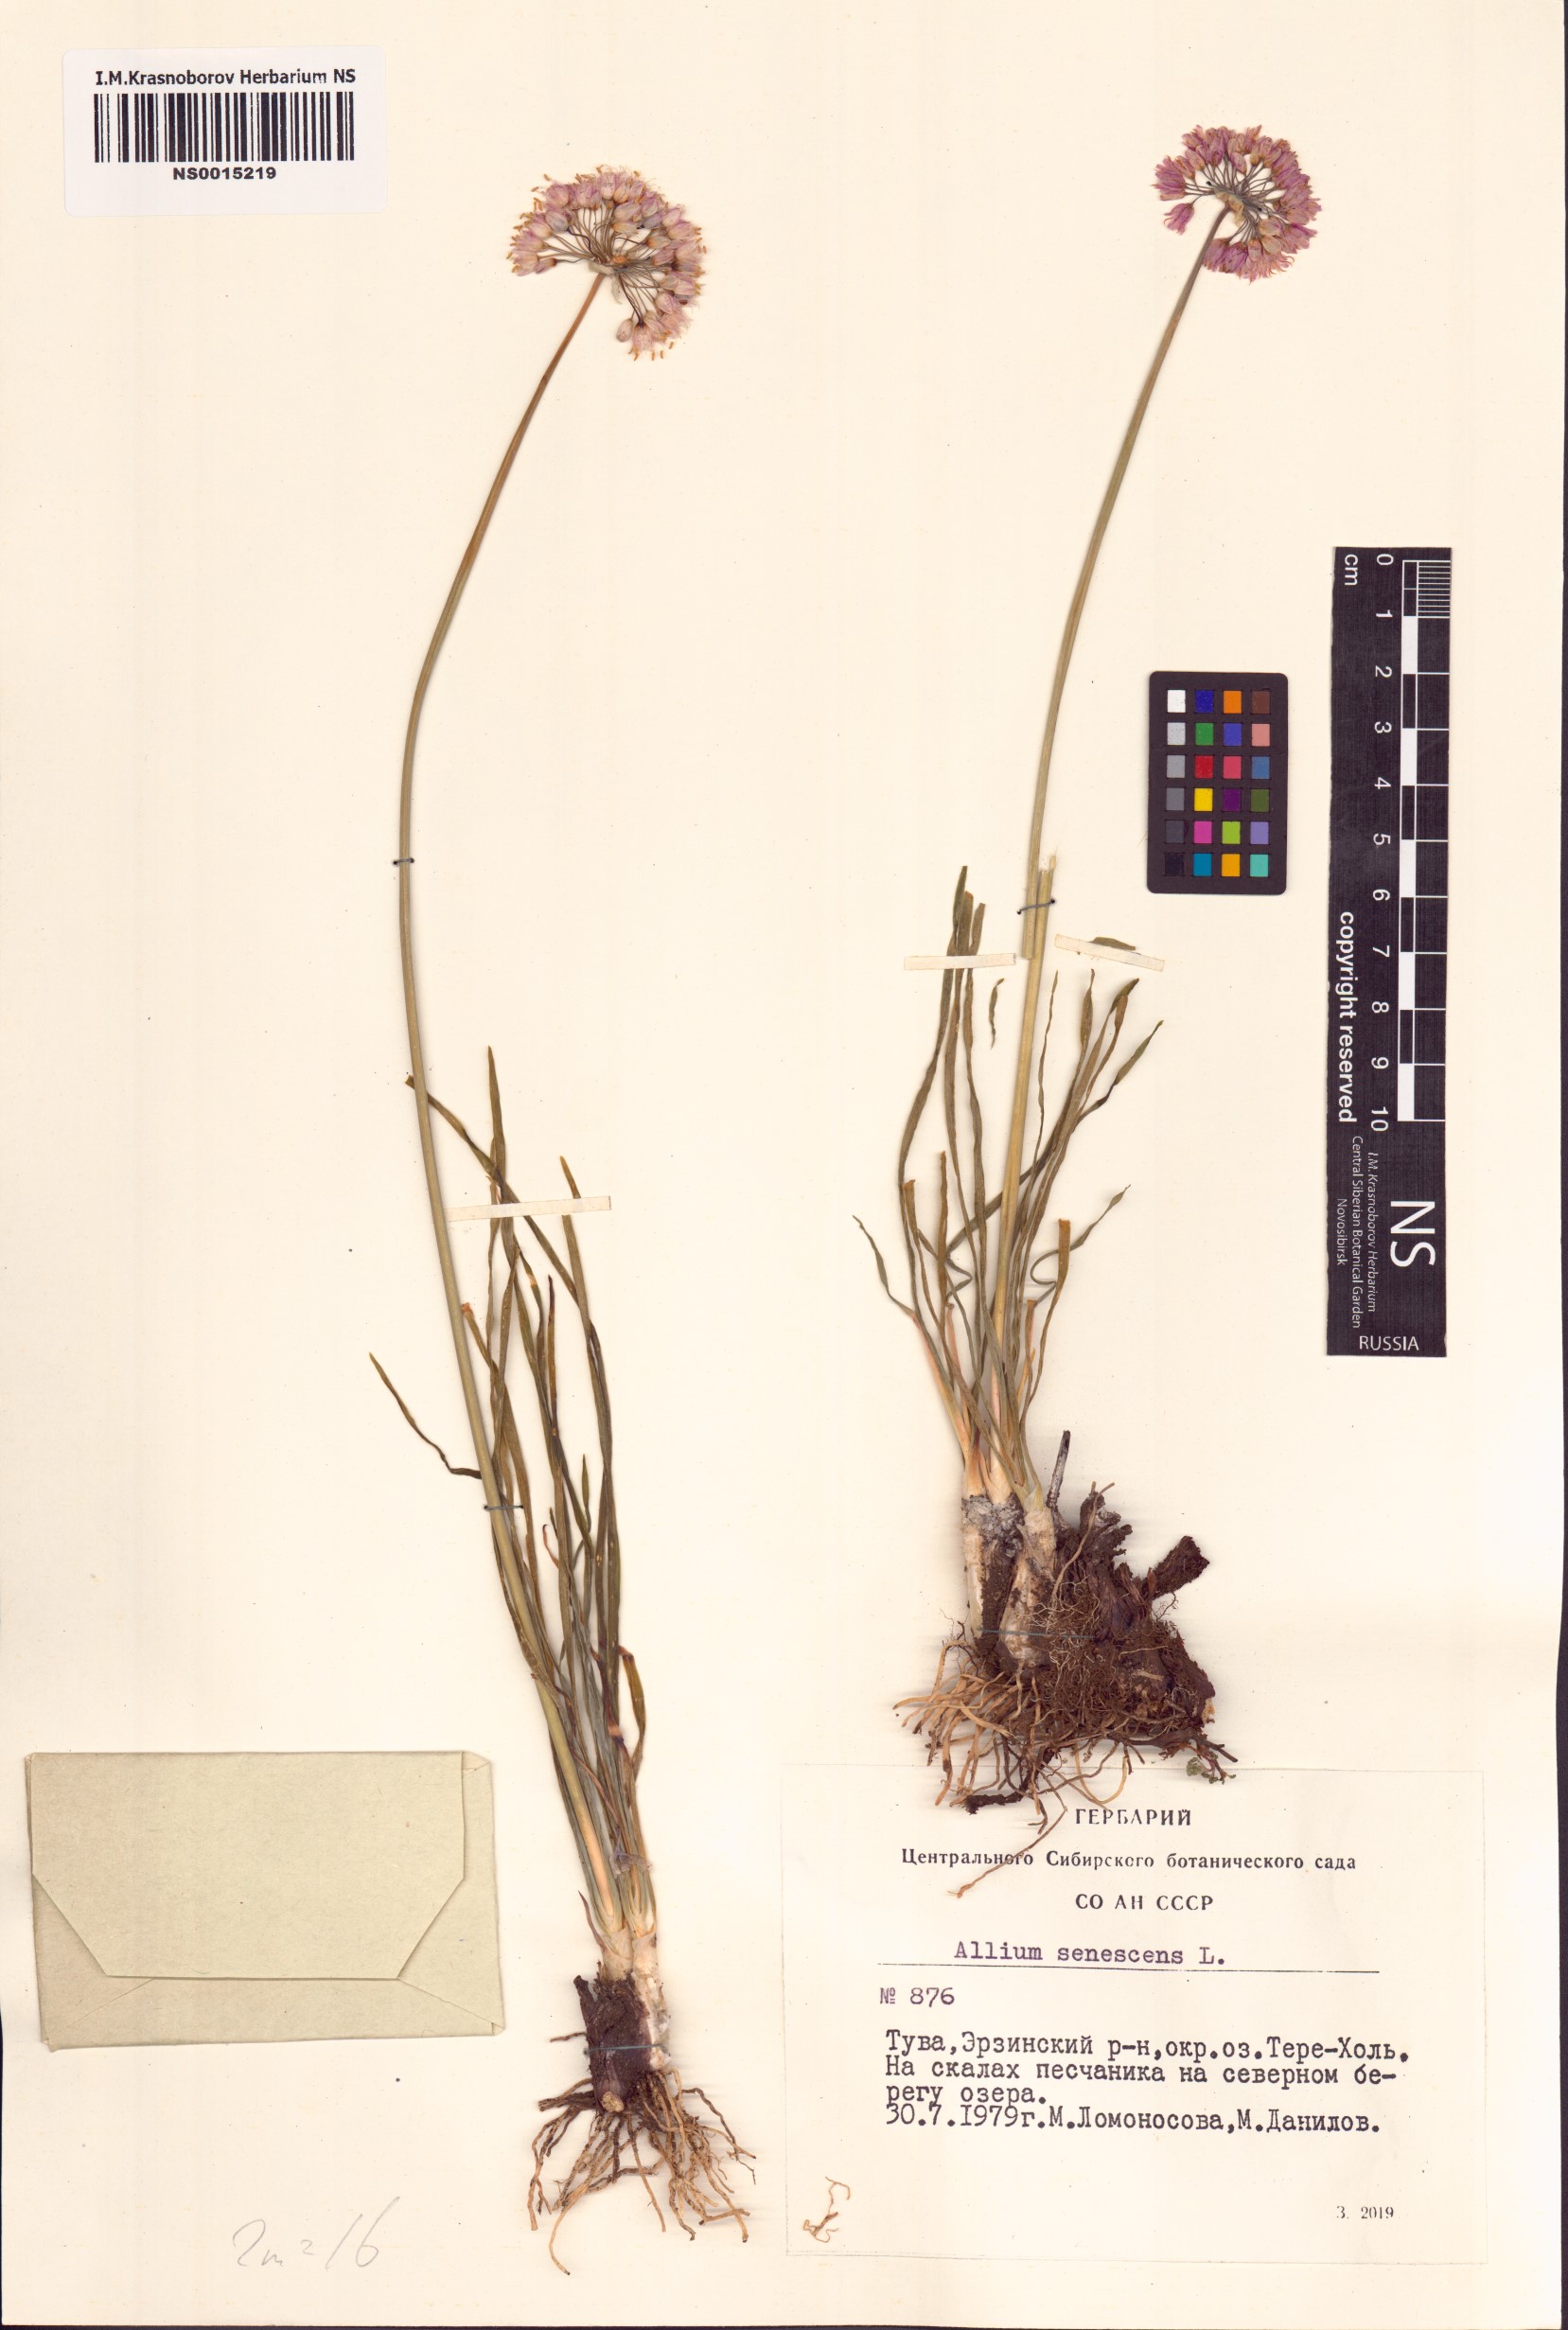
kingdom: Plantae
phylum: Tracheophyta
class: Liliopsida
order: Asparagales
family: Amaryllidaceae
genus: Allium
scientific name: Allium senescens
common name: German garlic
